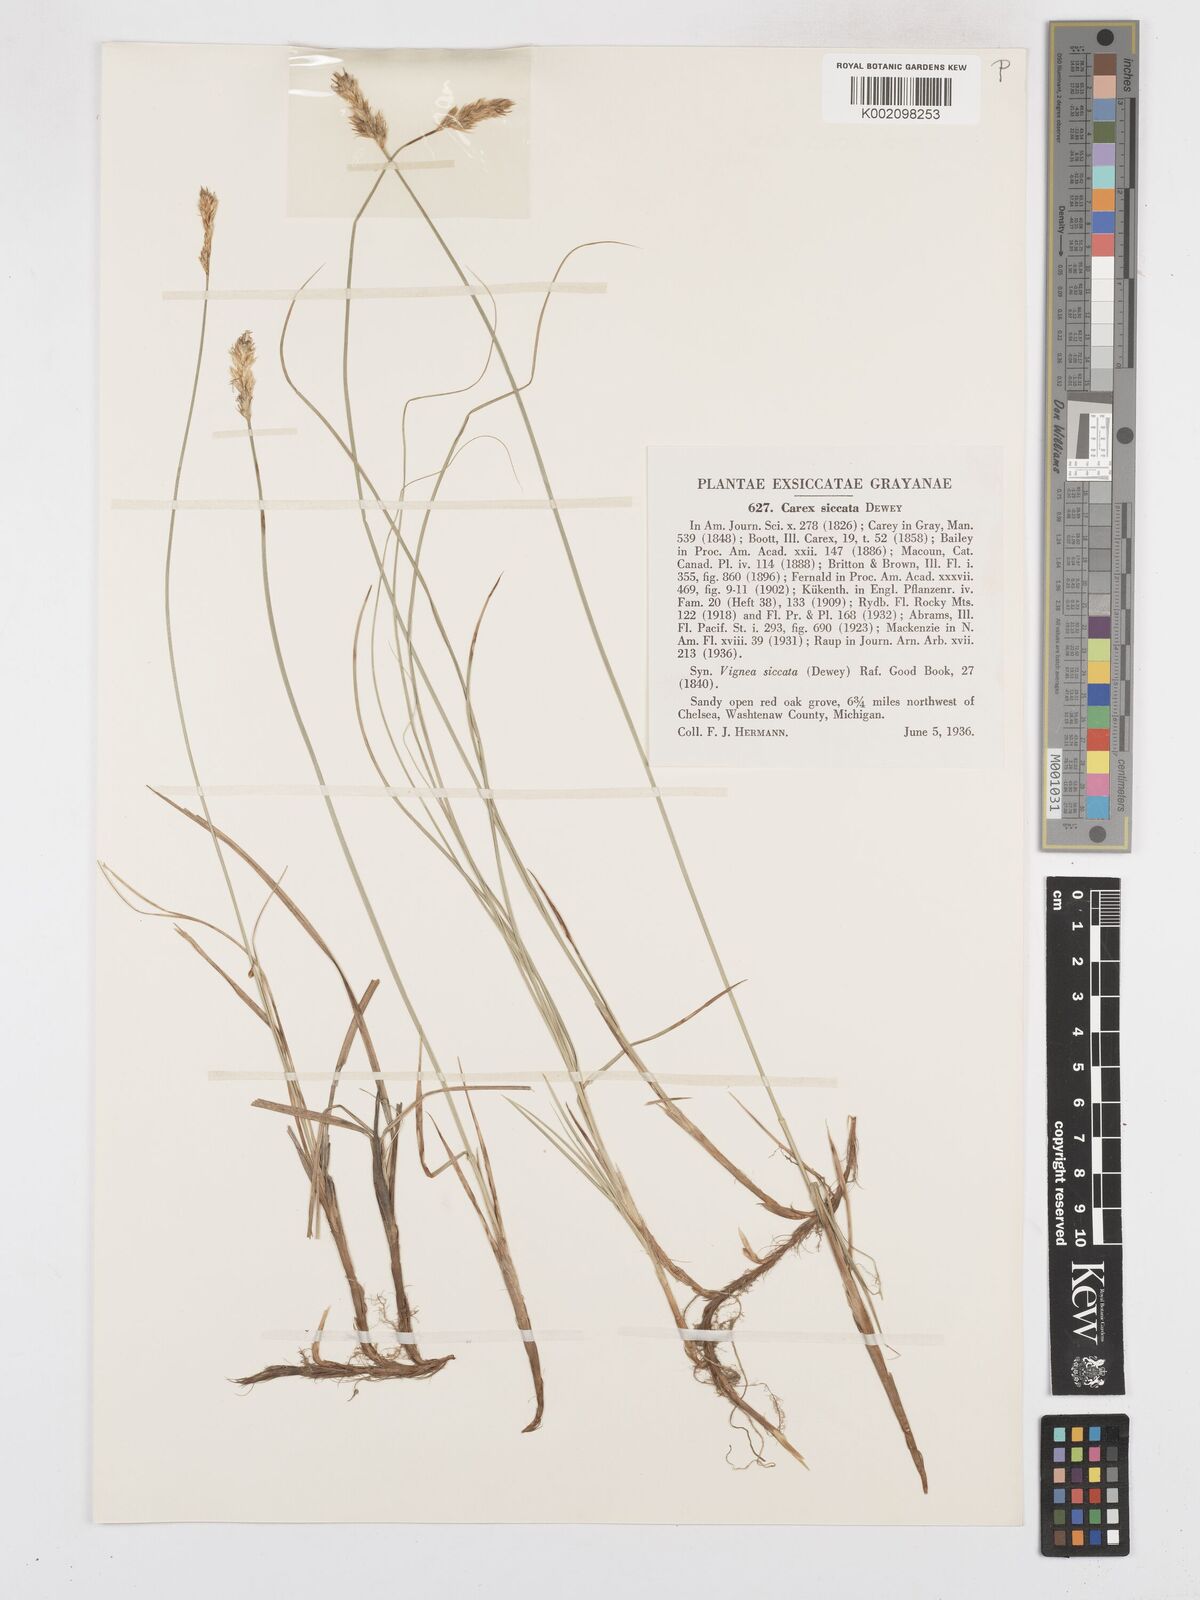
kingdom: Plantae
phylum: Tracheophyta
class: Liliopsida
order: Poales
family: Cyperaceae
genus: Carex
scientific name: Carex foenea
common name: Bronze sedge
